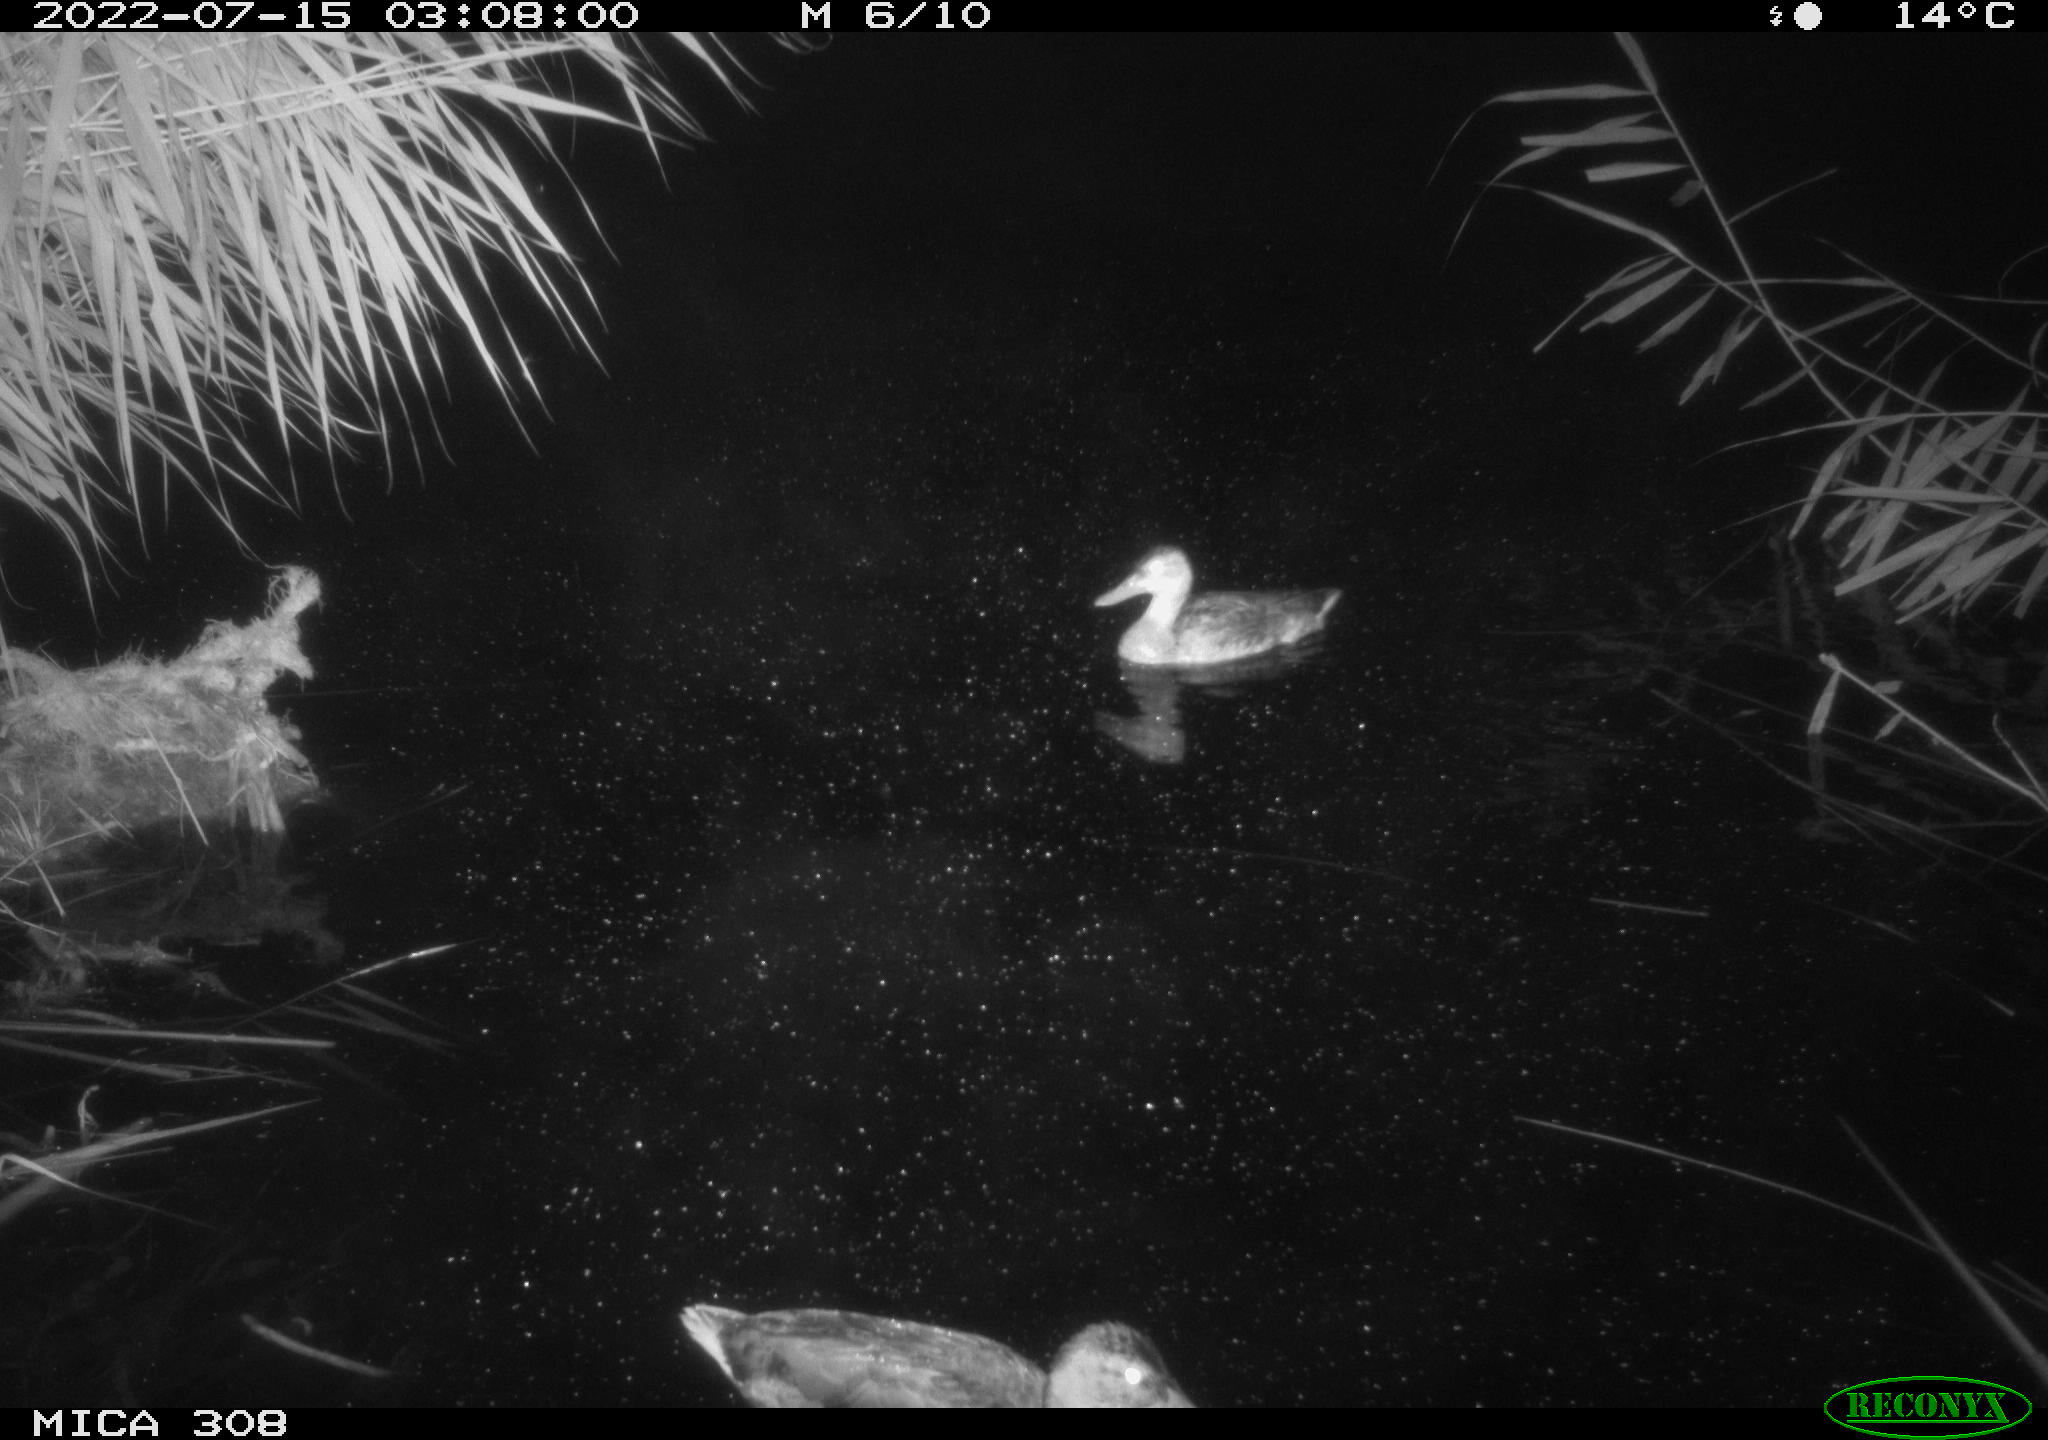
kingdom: Animalia
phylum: Chordata
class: Aves
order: Anseriformes
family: Anatidae
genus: Mareca
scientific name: Mareca strepera
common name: Gadwall
